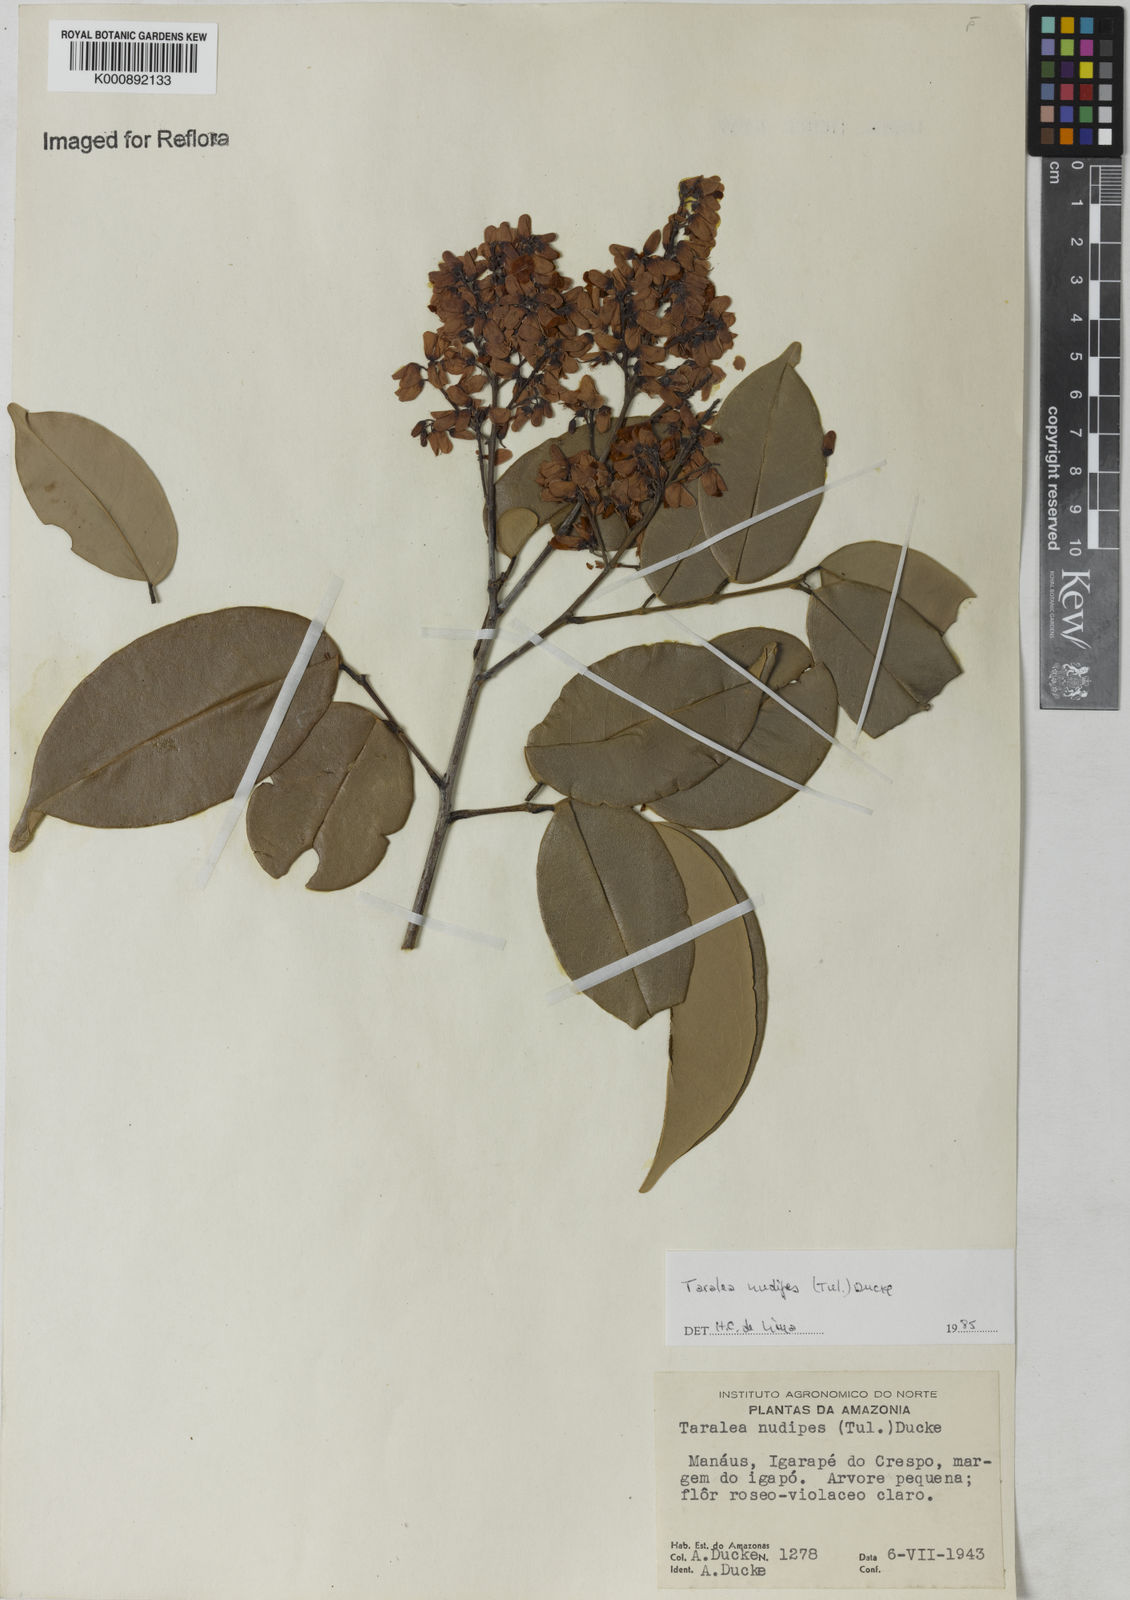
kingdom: Plantae
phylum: Tracheophyta
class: Magnoliopsida
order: Fabales
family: Fabaceae
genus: Taralea
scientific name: Taralea nudipes
